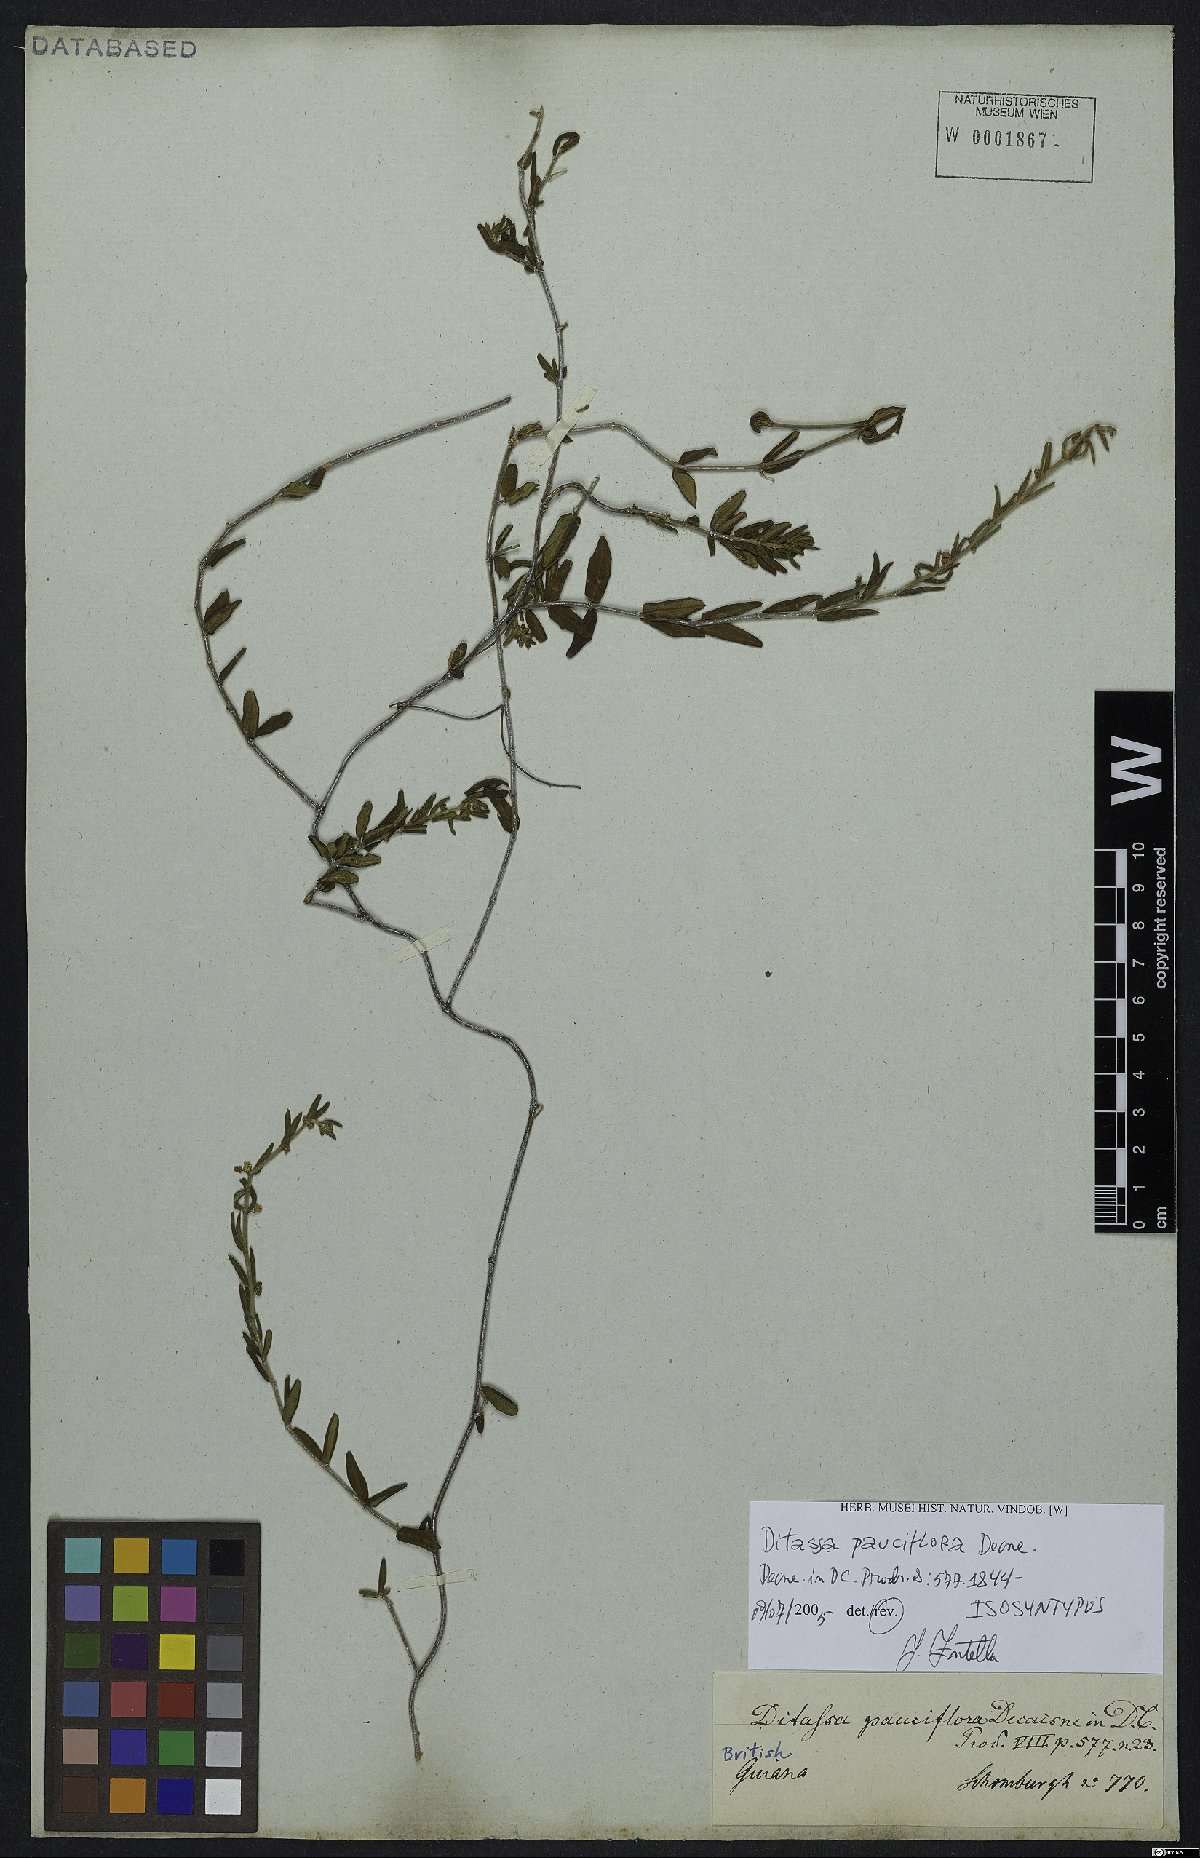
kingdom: Plantae
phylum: Tracheophyta
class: Magnoliopsida
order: Gentianales
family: Apocynaceae
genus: Ditassa
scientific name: Ditassa pauciflora
